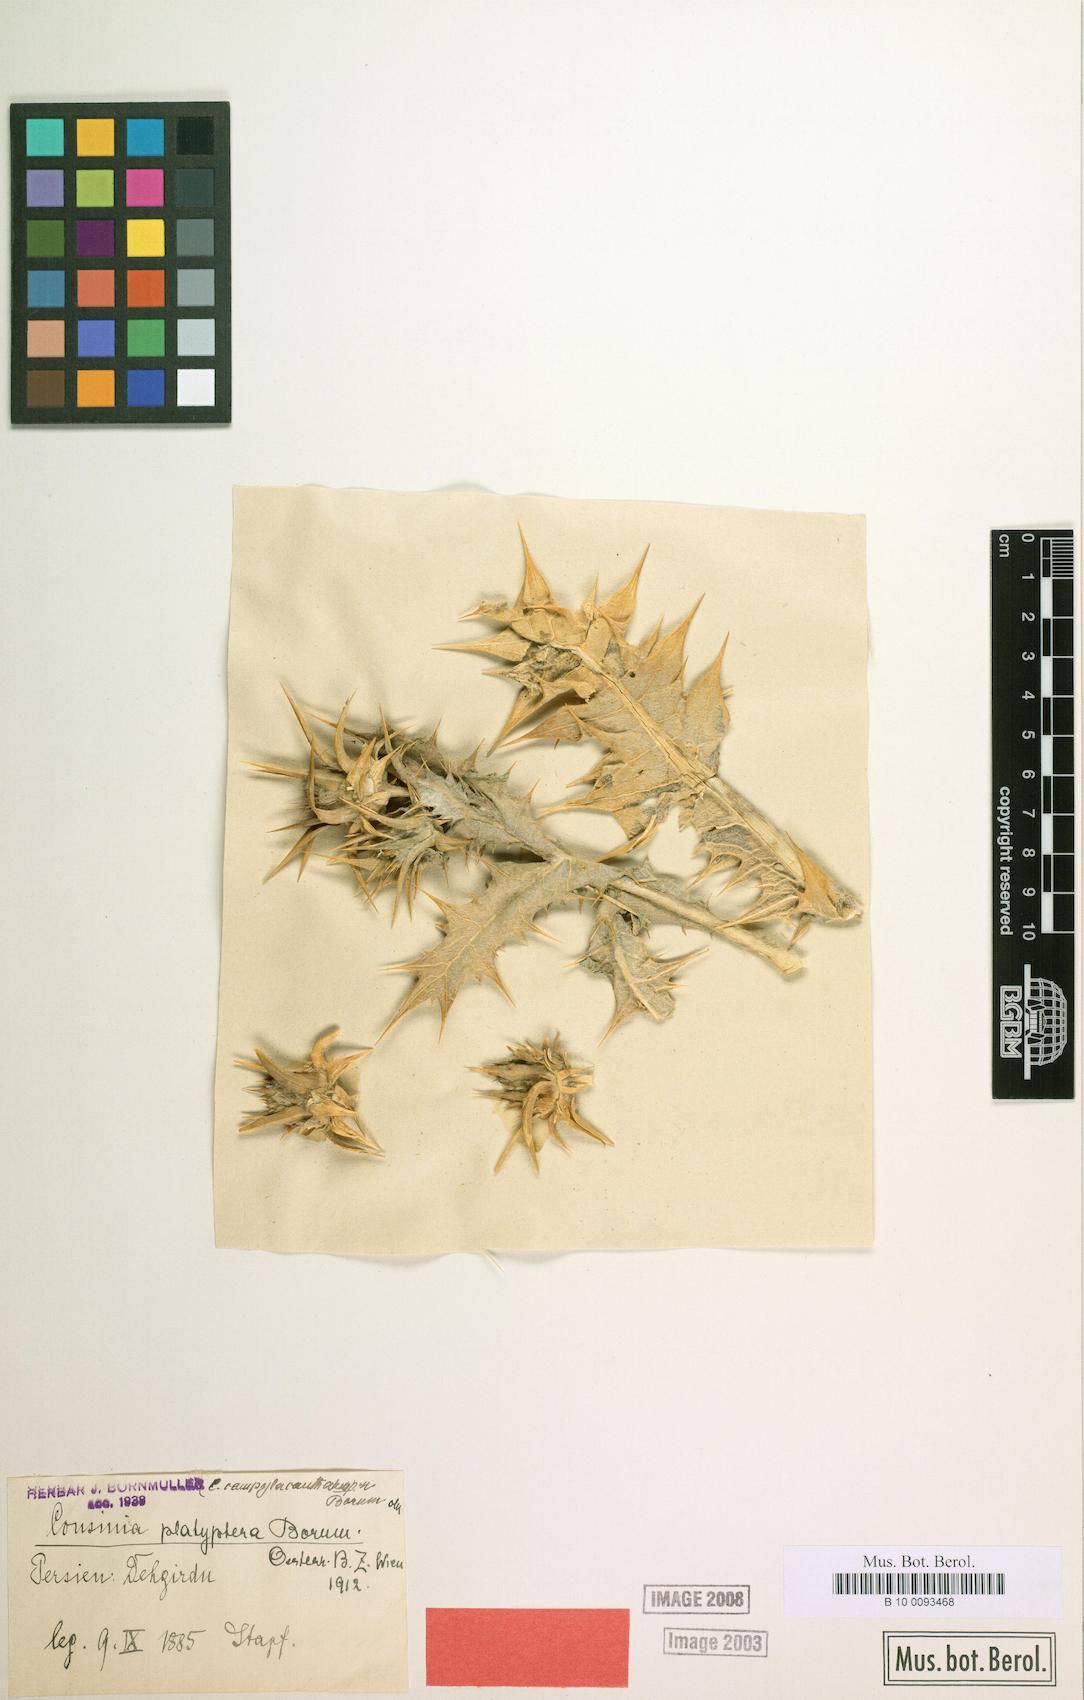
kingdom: Plantae
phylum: Tracheophyta
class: Magnoliopsida
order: Asterales
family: Asteraceae
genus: Cousinia
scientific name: Cousinia platyptera
